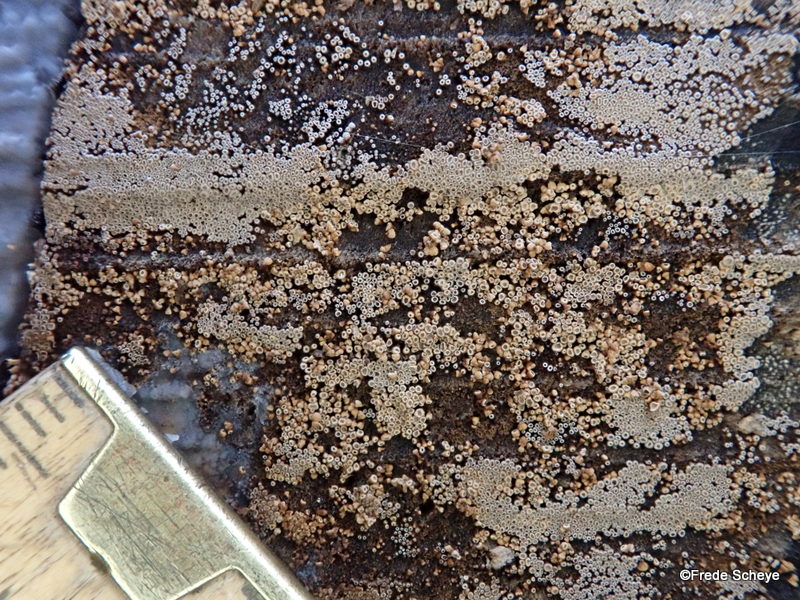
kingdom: Fungi
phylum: Basidiomycota
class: Agaricomycetes
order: Agaricales
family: Niaceae
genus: Merismodes
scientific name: Merismodes anomala
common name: almindelig læderskål
